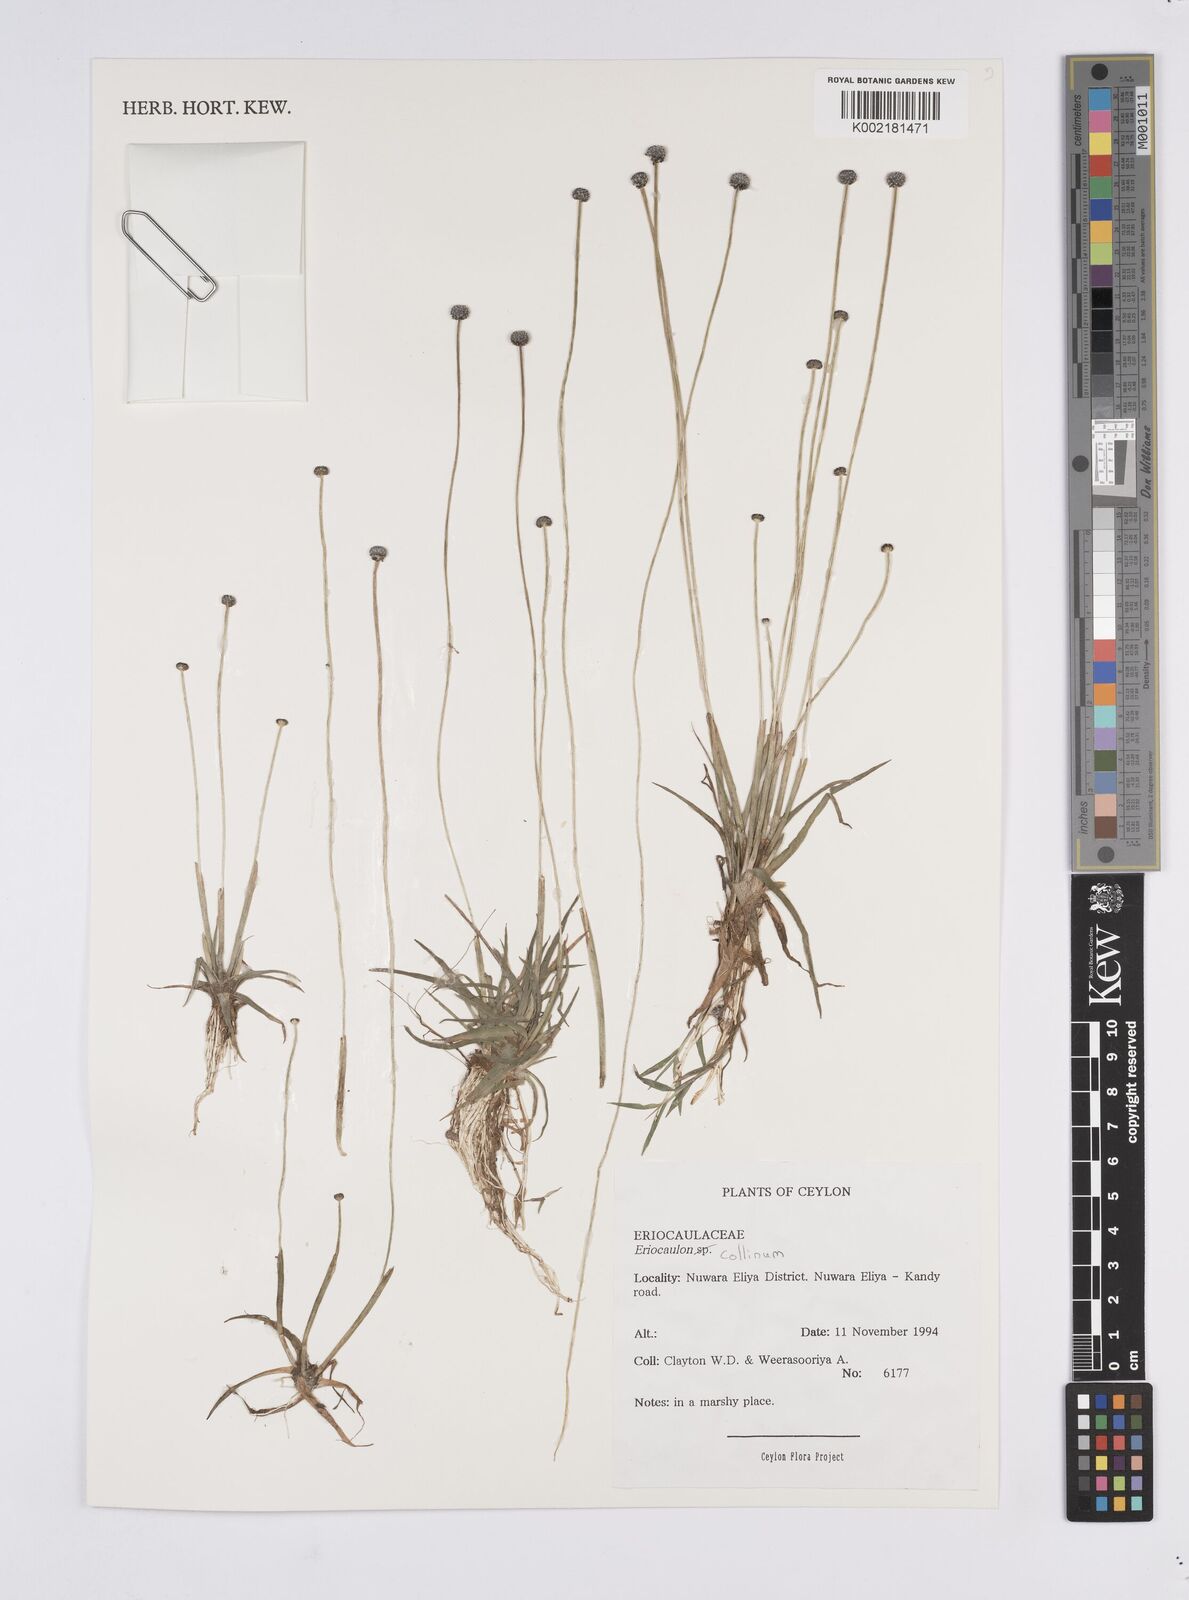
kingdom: Plantae
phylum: Tracheophyta
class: Liliopsida
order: Poales
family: Eriocaulaceae
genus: Eriocaulon
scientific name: Eriocaulon odoratum
